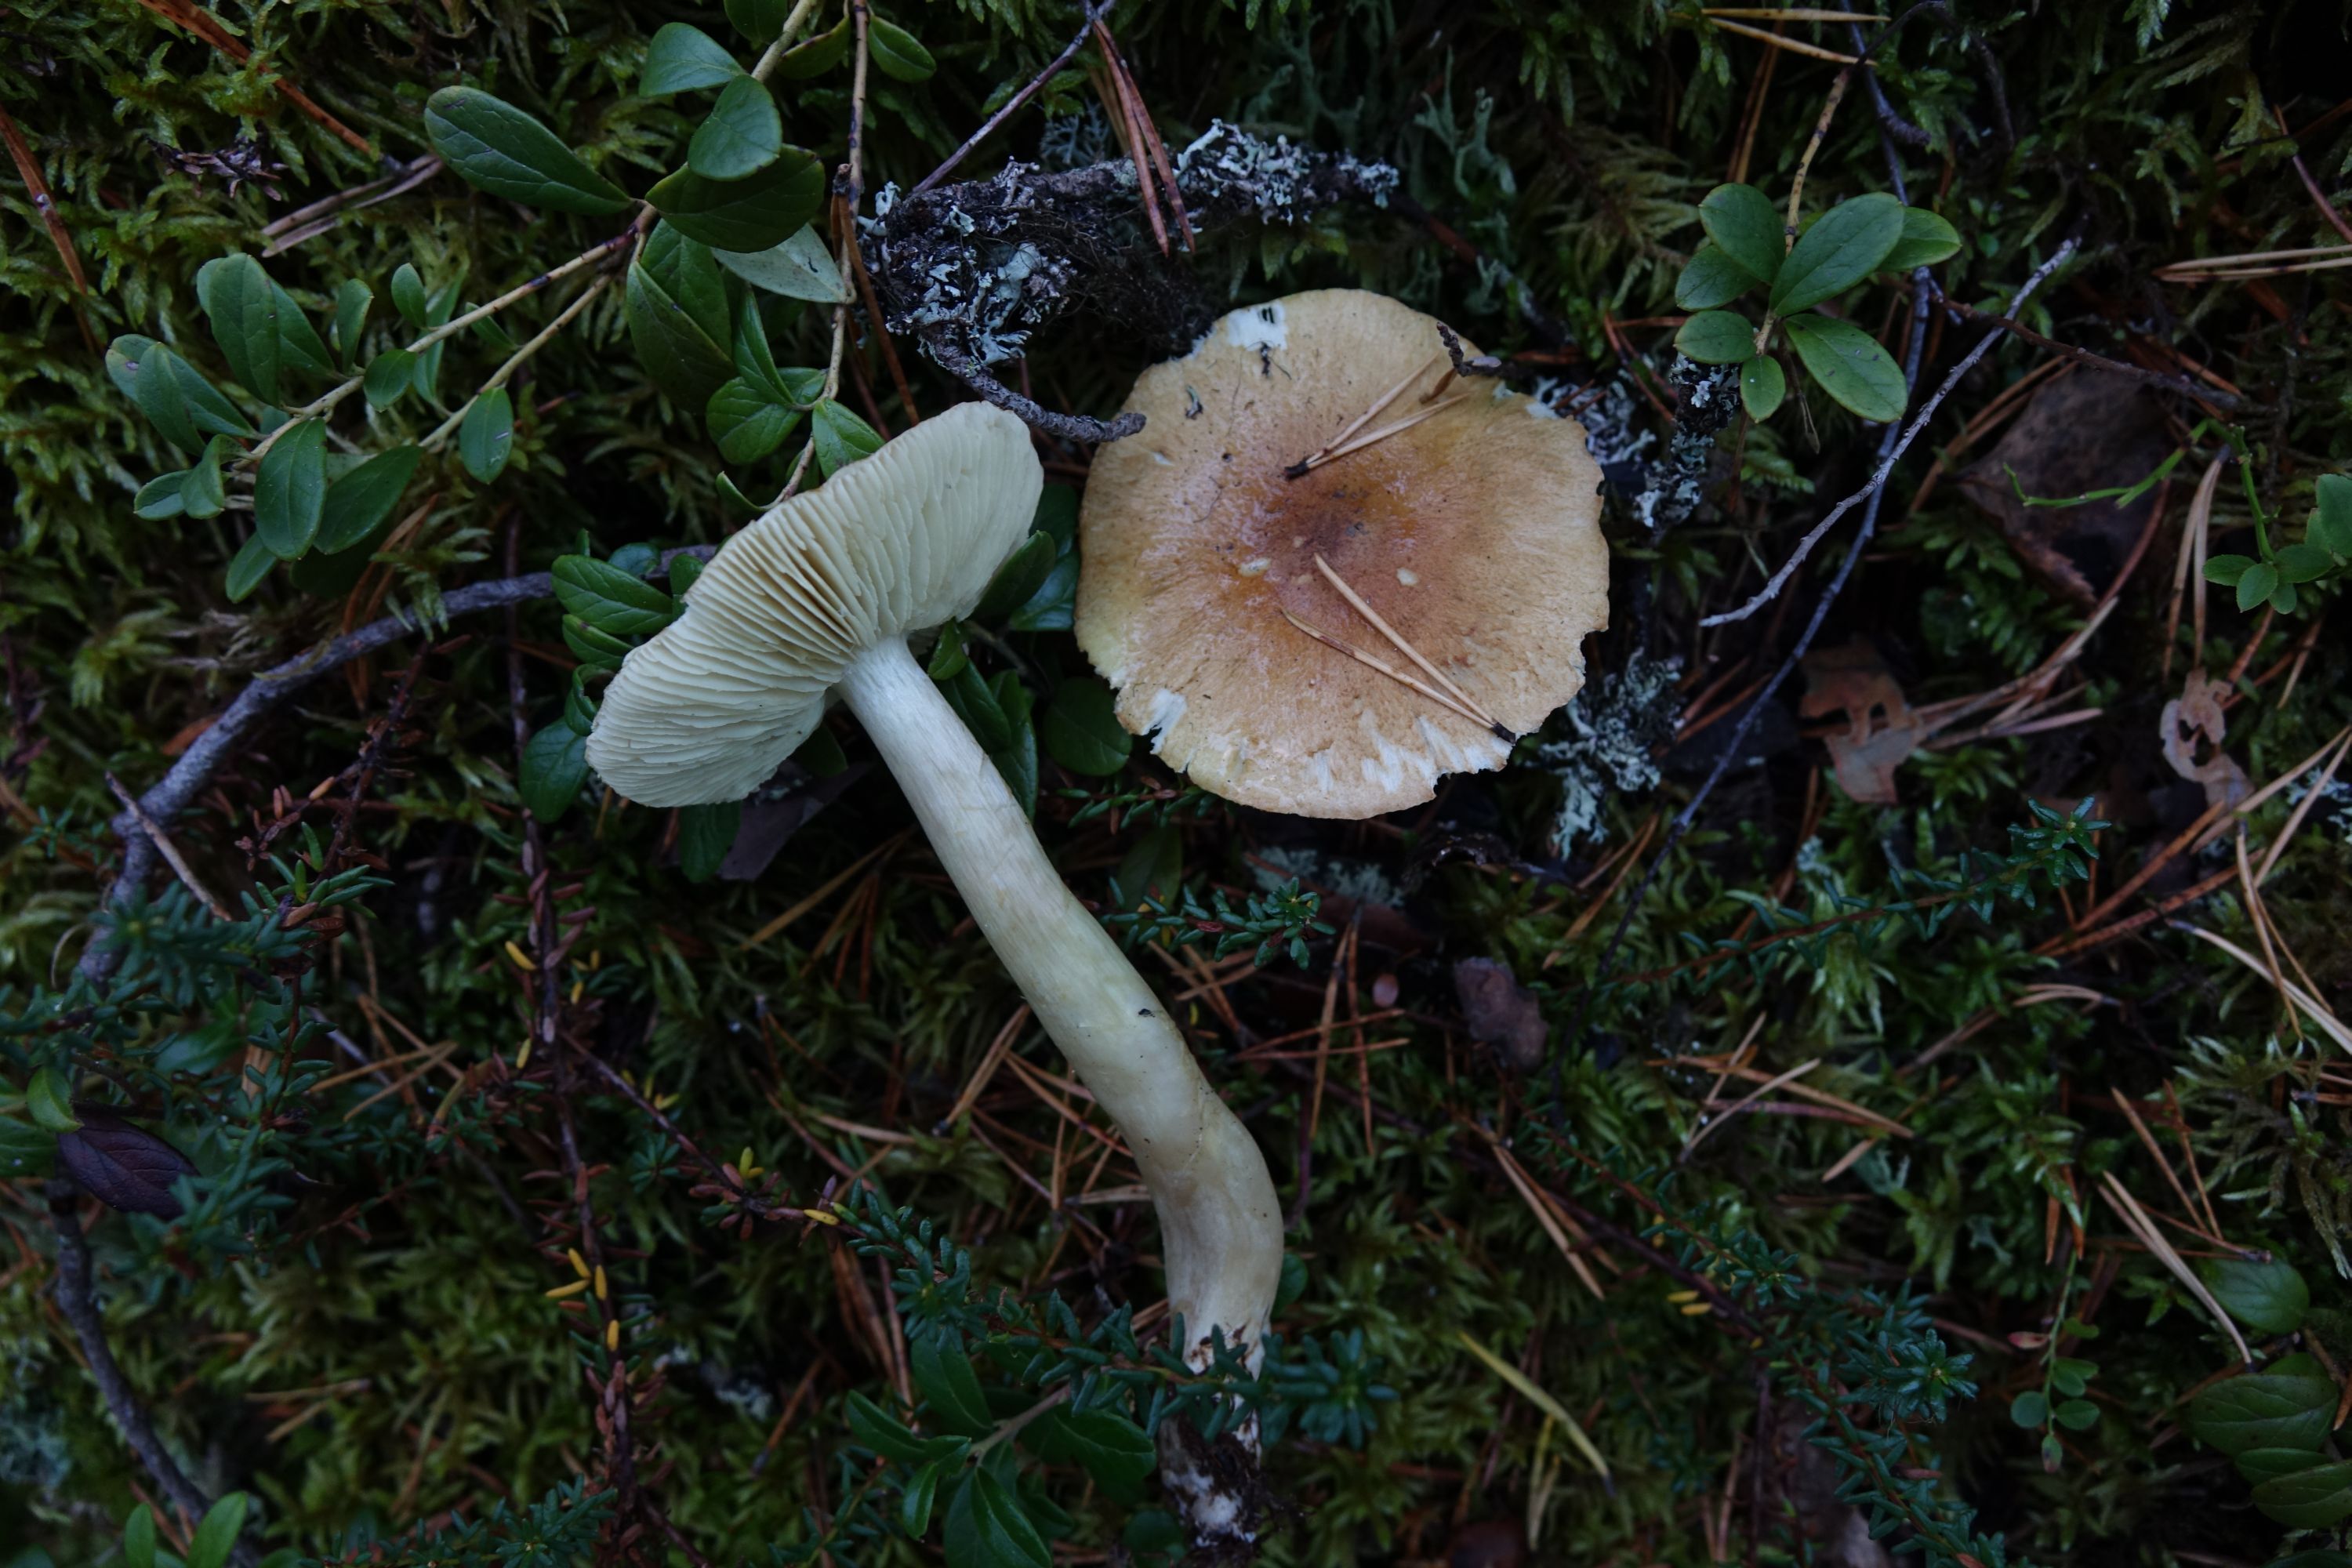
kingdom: Fungi
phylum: Basidiomycota
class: Agaricomycetes
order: Agaricales
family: Tricholomataceae
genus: Tricholoma
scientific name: Tricholoma aestuans
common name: Acrid knight
